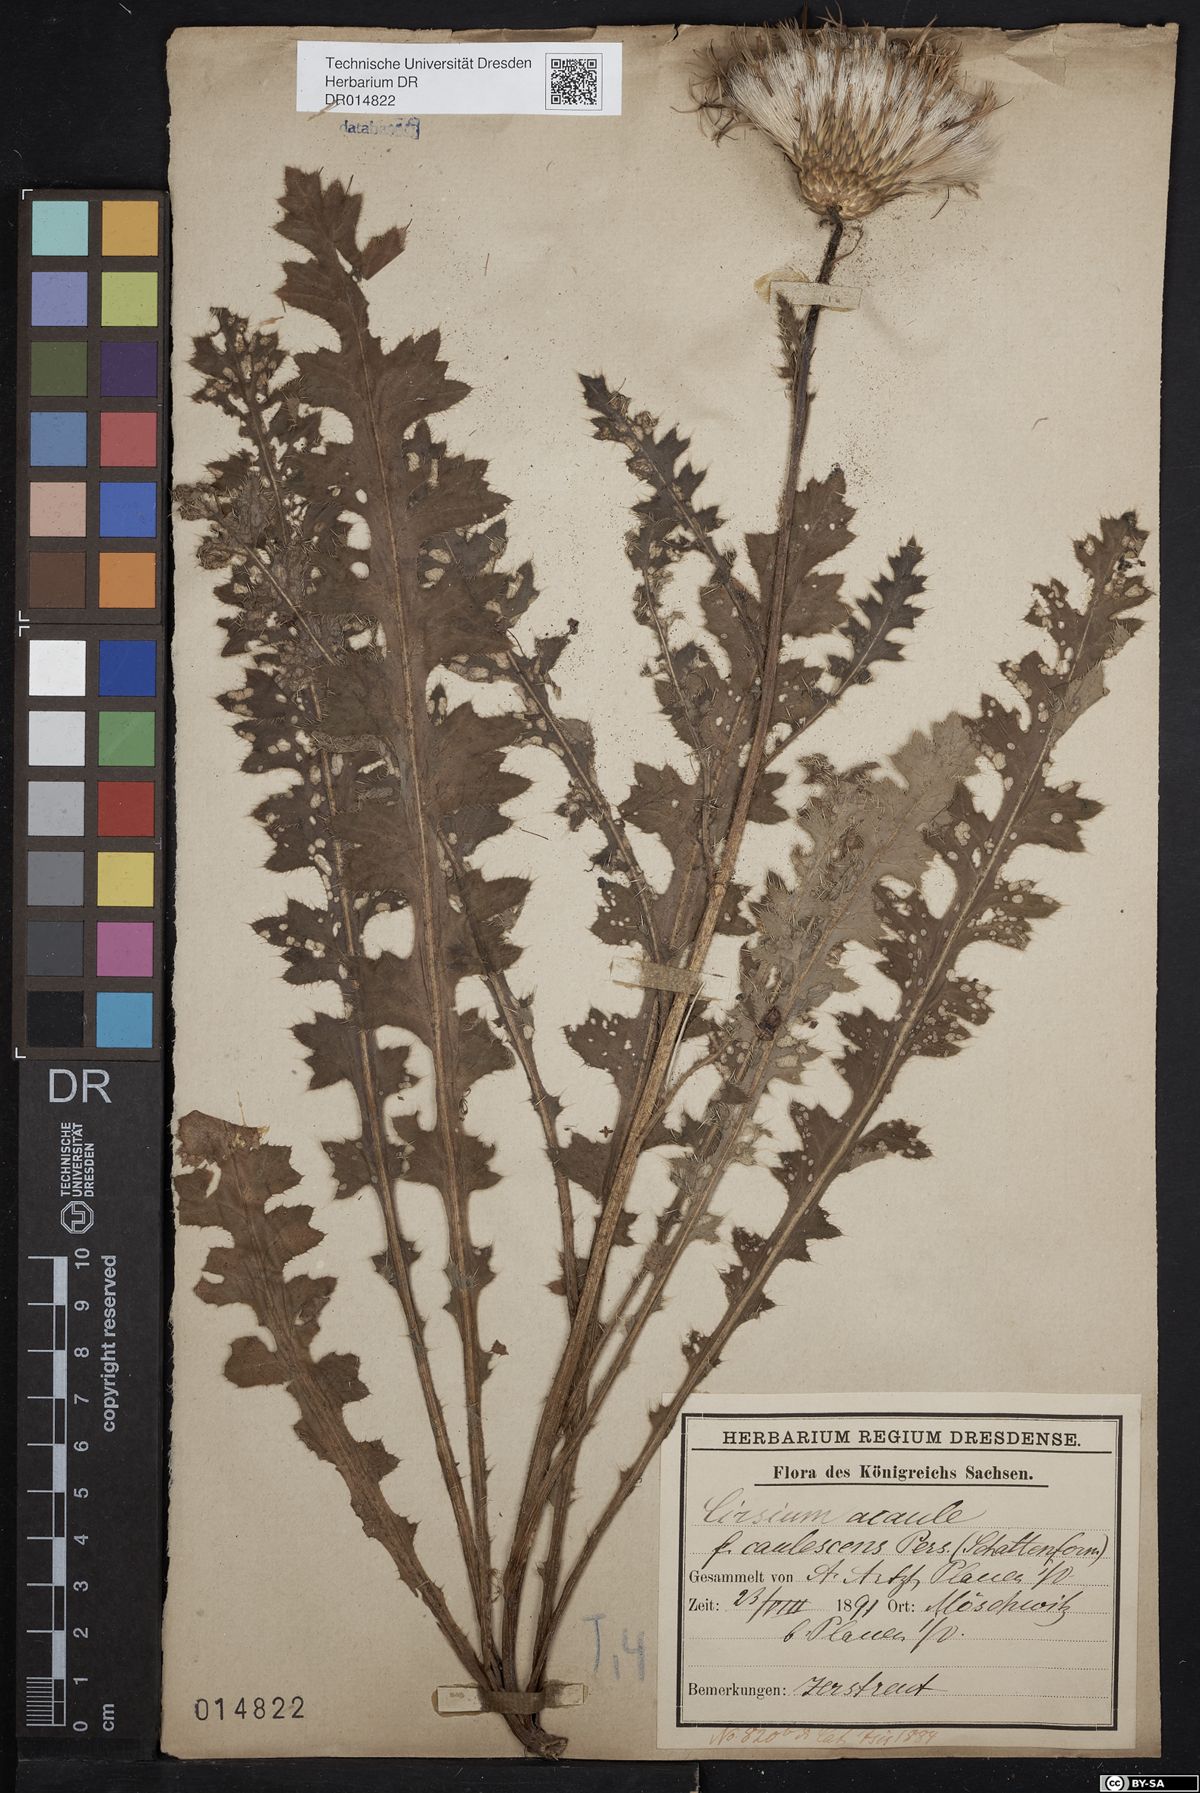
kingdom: Plantae
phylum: Tracheophyta
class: Magnoliopsida
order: Asterales
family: Asteraceae
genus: Cirsium
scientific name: Cirsium acaulon
